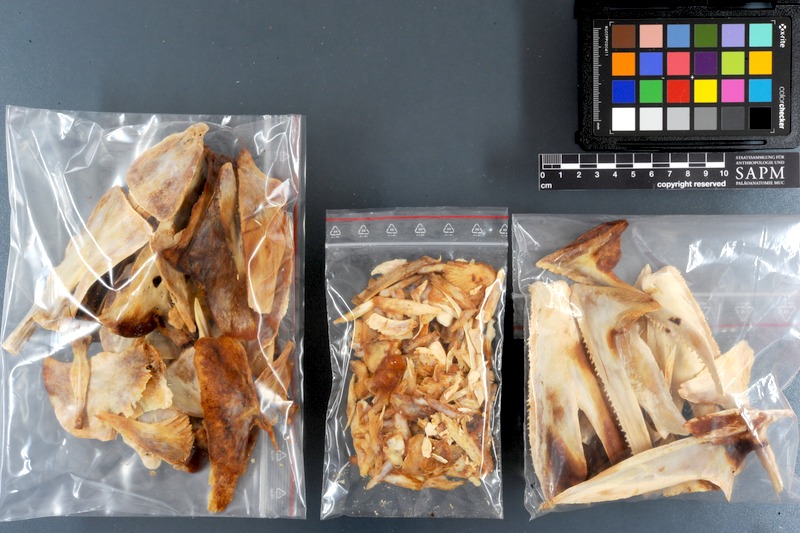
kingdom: Animalia
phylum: Chordata
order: Perciformes
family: Scombridae
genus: Thunnus
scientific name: Thunnus thynnus
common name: Bluefin tuna
